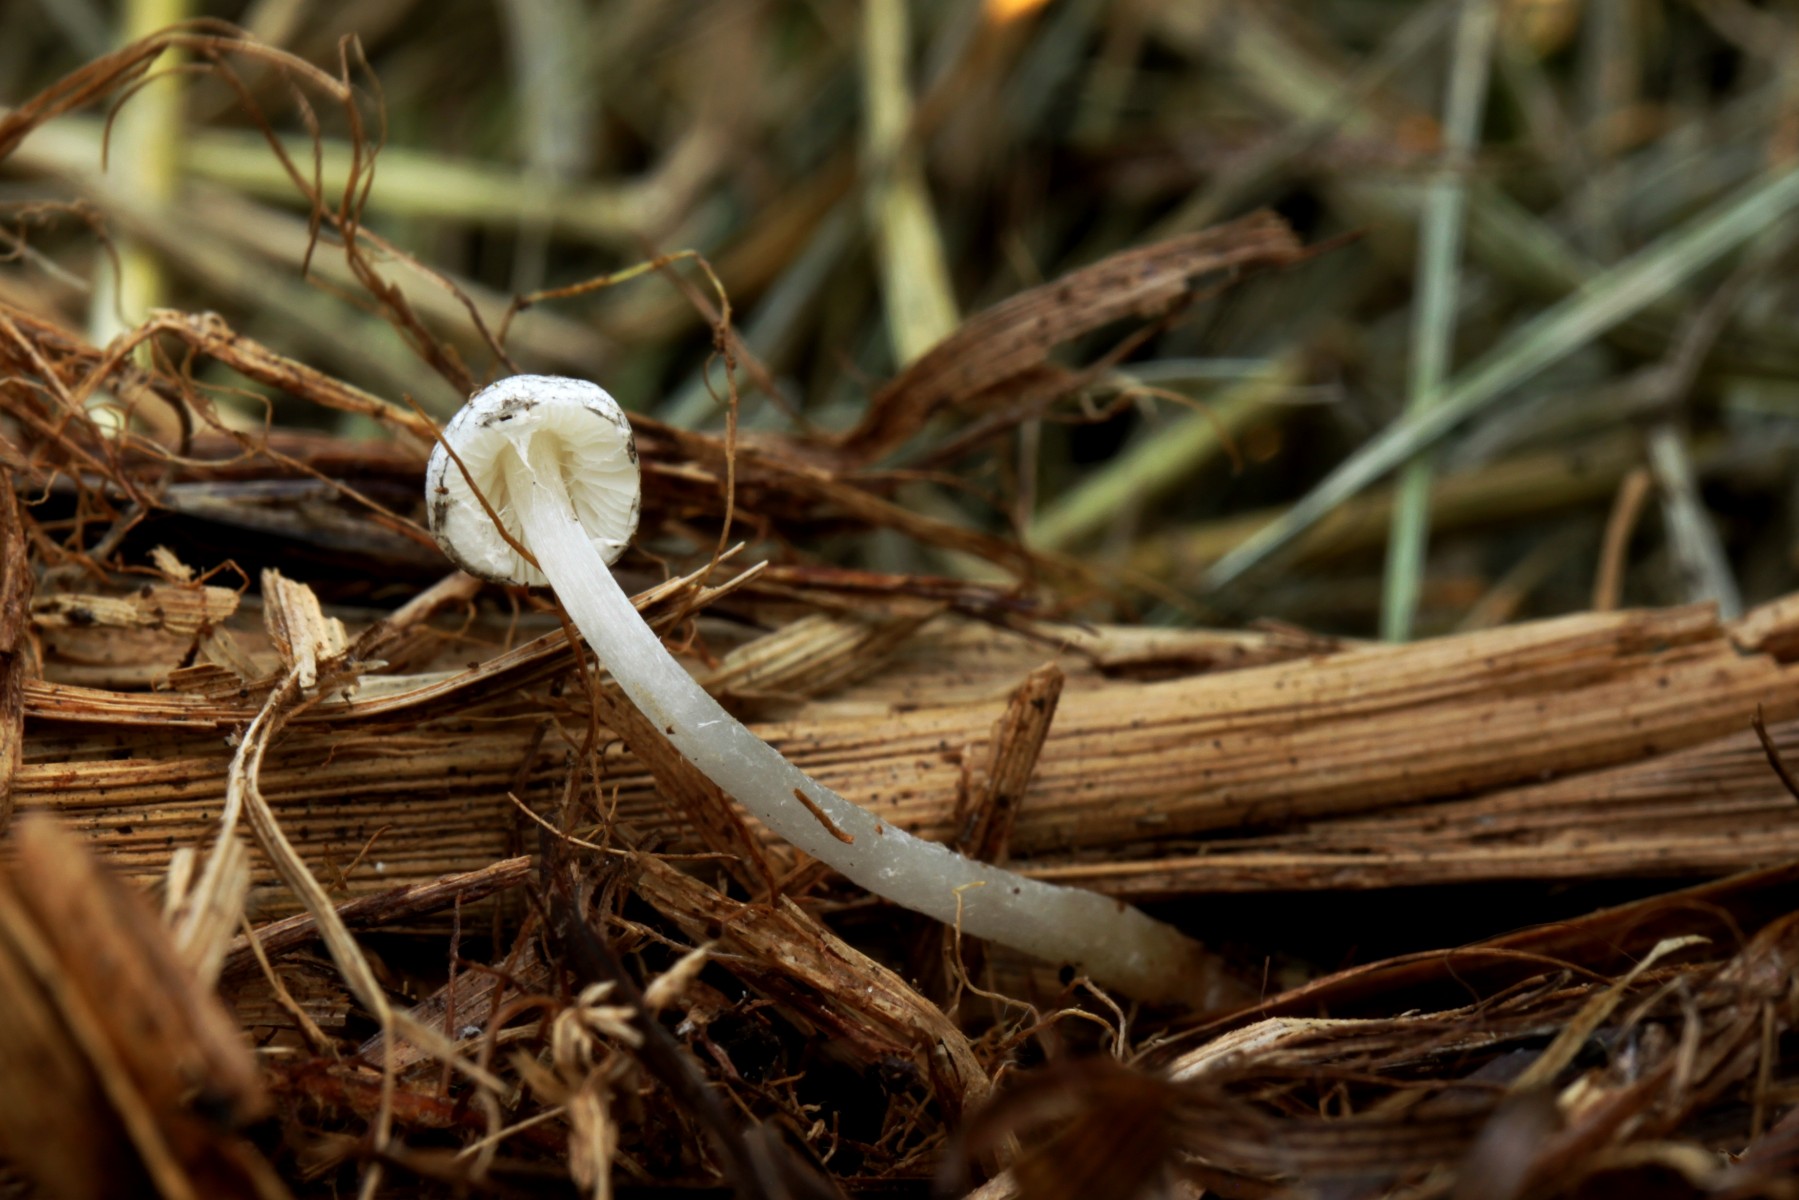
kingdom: Fungi
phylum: Basidiomycota
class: Agaricomycetes
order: Agaricales
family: Agaricaceae
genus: Leucoagaricus
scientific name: Leucoagaricus melanotrichus
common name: gråhåret silkehat
